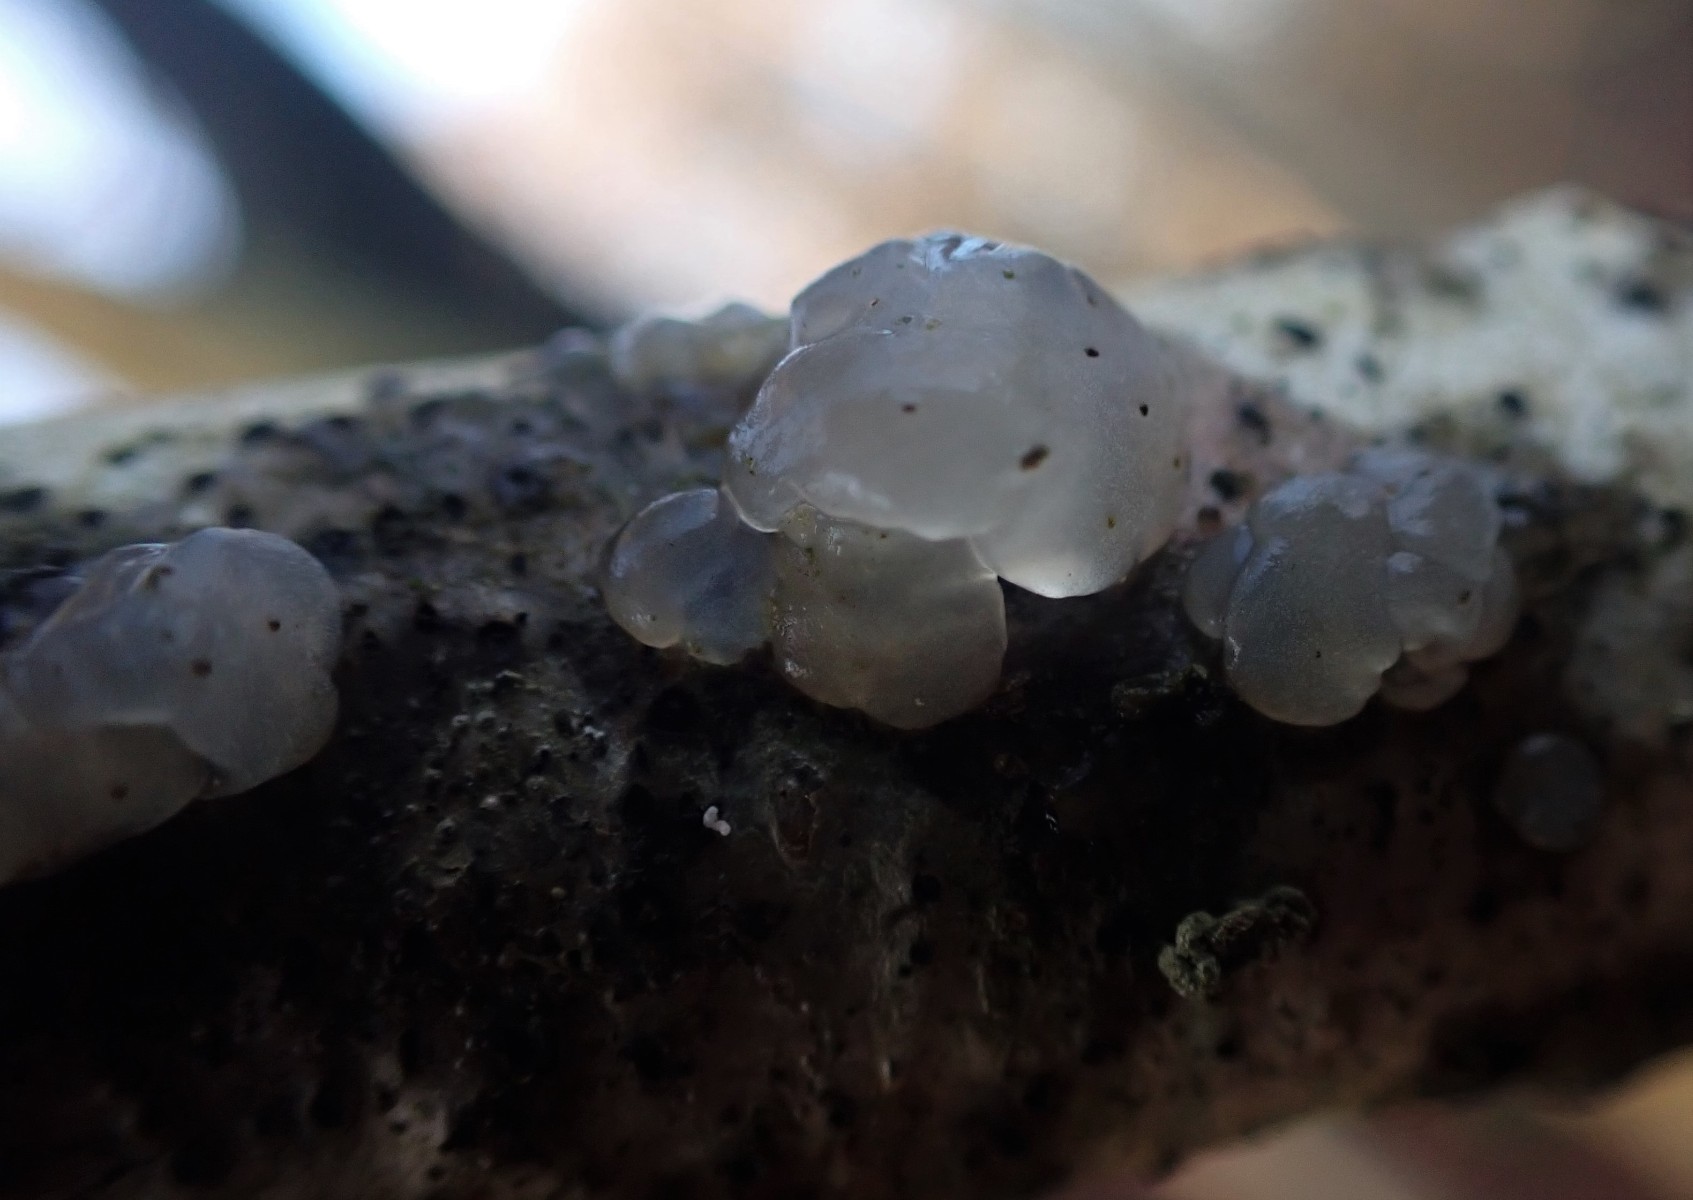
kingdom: Fungi
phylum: Basidiomycota
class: Agaricomycetes
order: Auriculariales
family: Hyaloriaceae
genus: Myxarium
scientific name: Myxarium nucleatum
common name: klar bævretop
